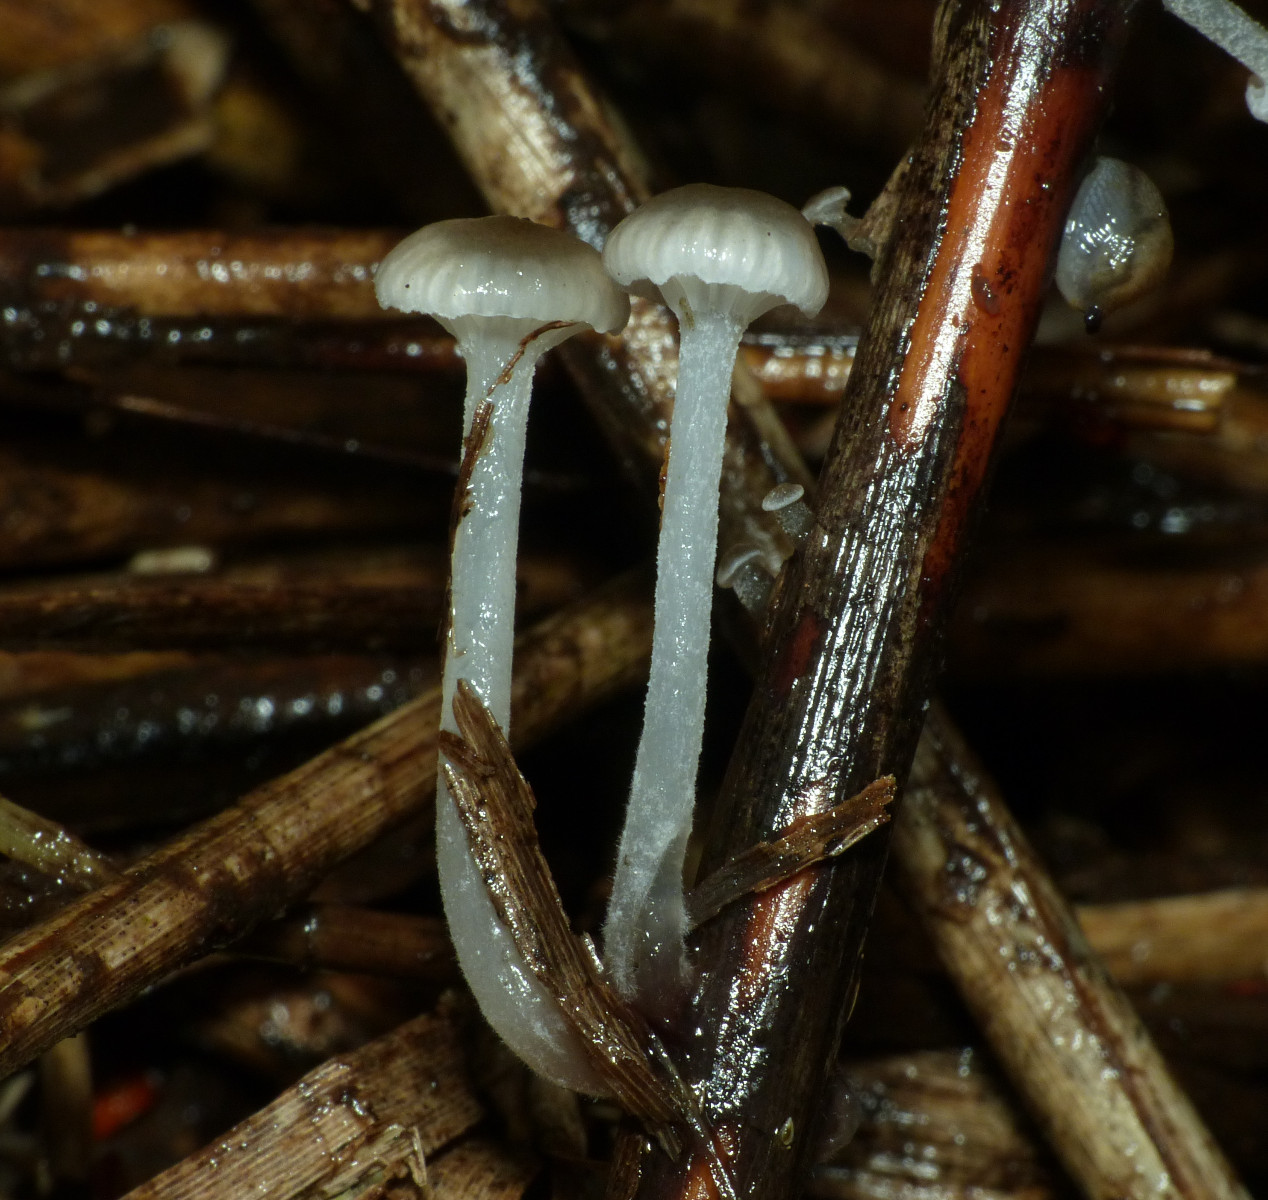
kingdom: Fungi
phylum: Basidiomycota
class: Agaricomycetes
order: Agaricales
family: Mycenaceae
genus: Mycena
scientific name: Mycena belliae
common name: tagrørs-huesvamp
